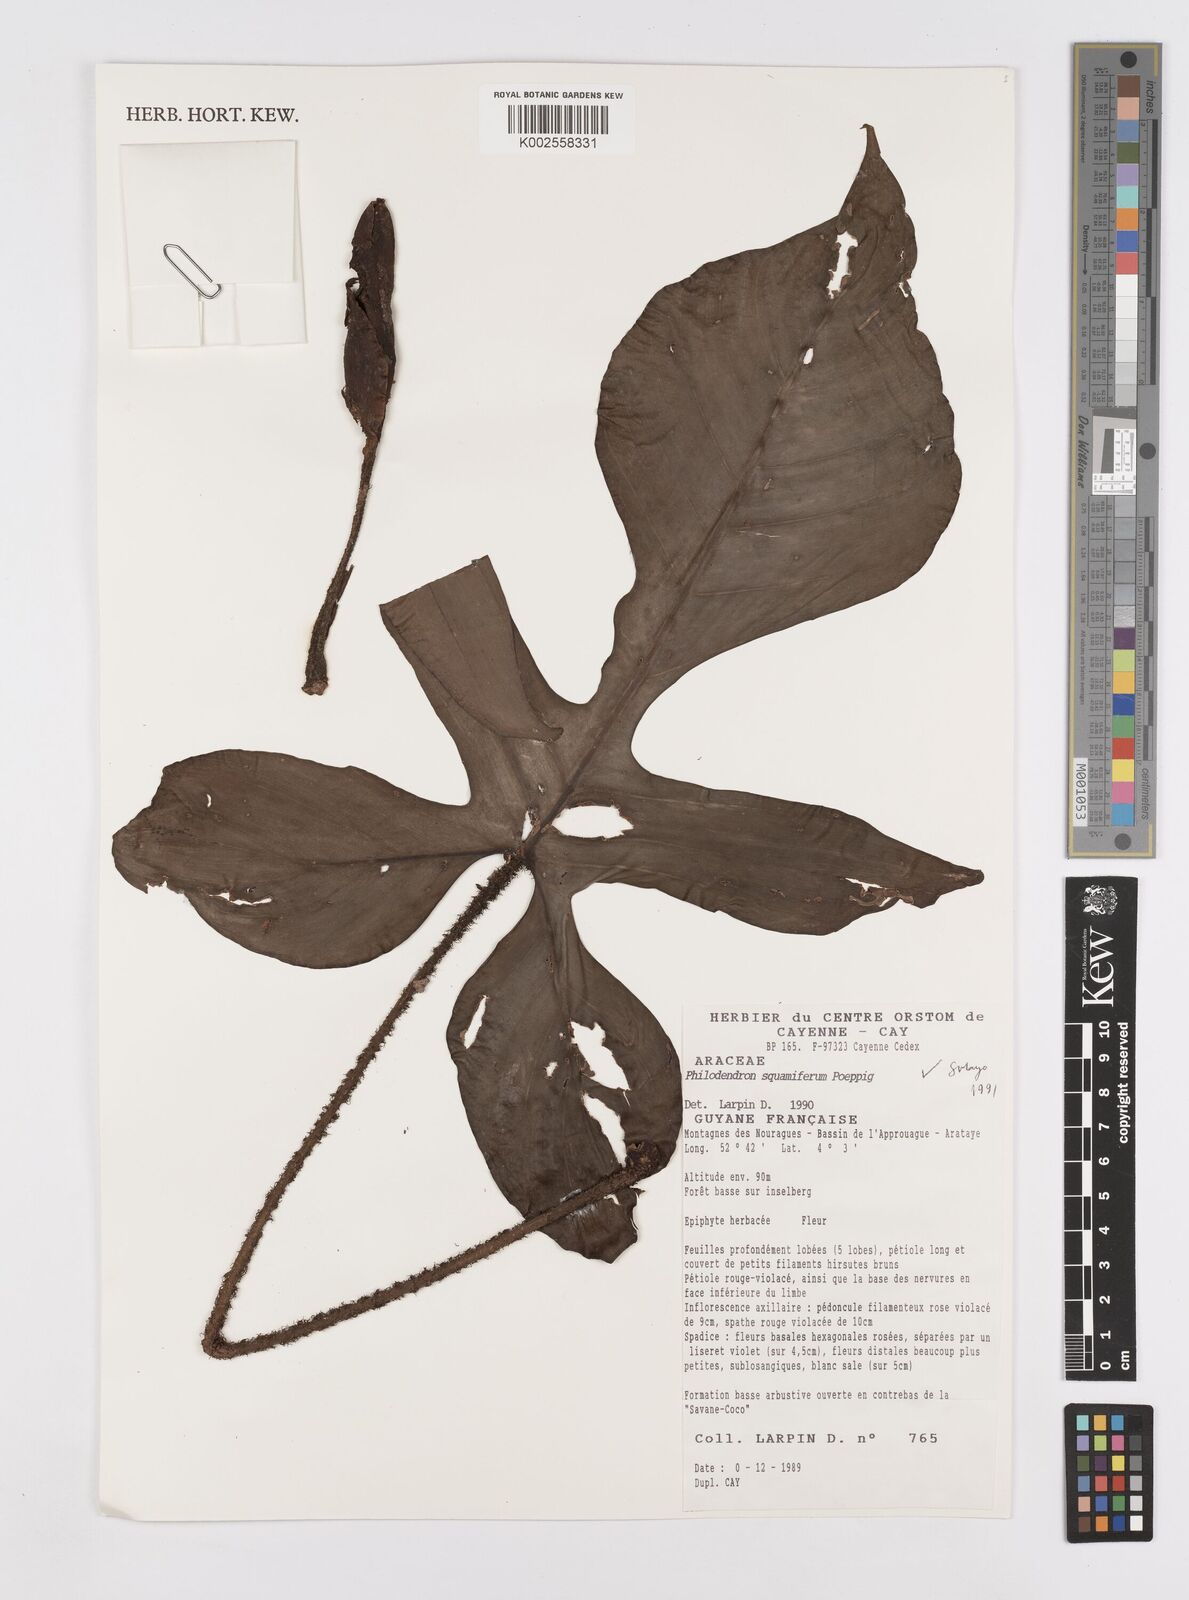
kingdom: Plantae
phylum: Tracheophyta
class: Liliopsida
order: Alismatales
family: Araceae
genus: Philodendron
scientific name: Philodendron squamiferum
